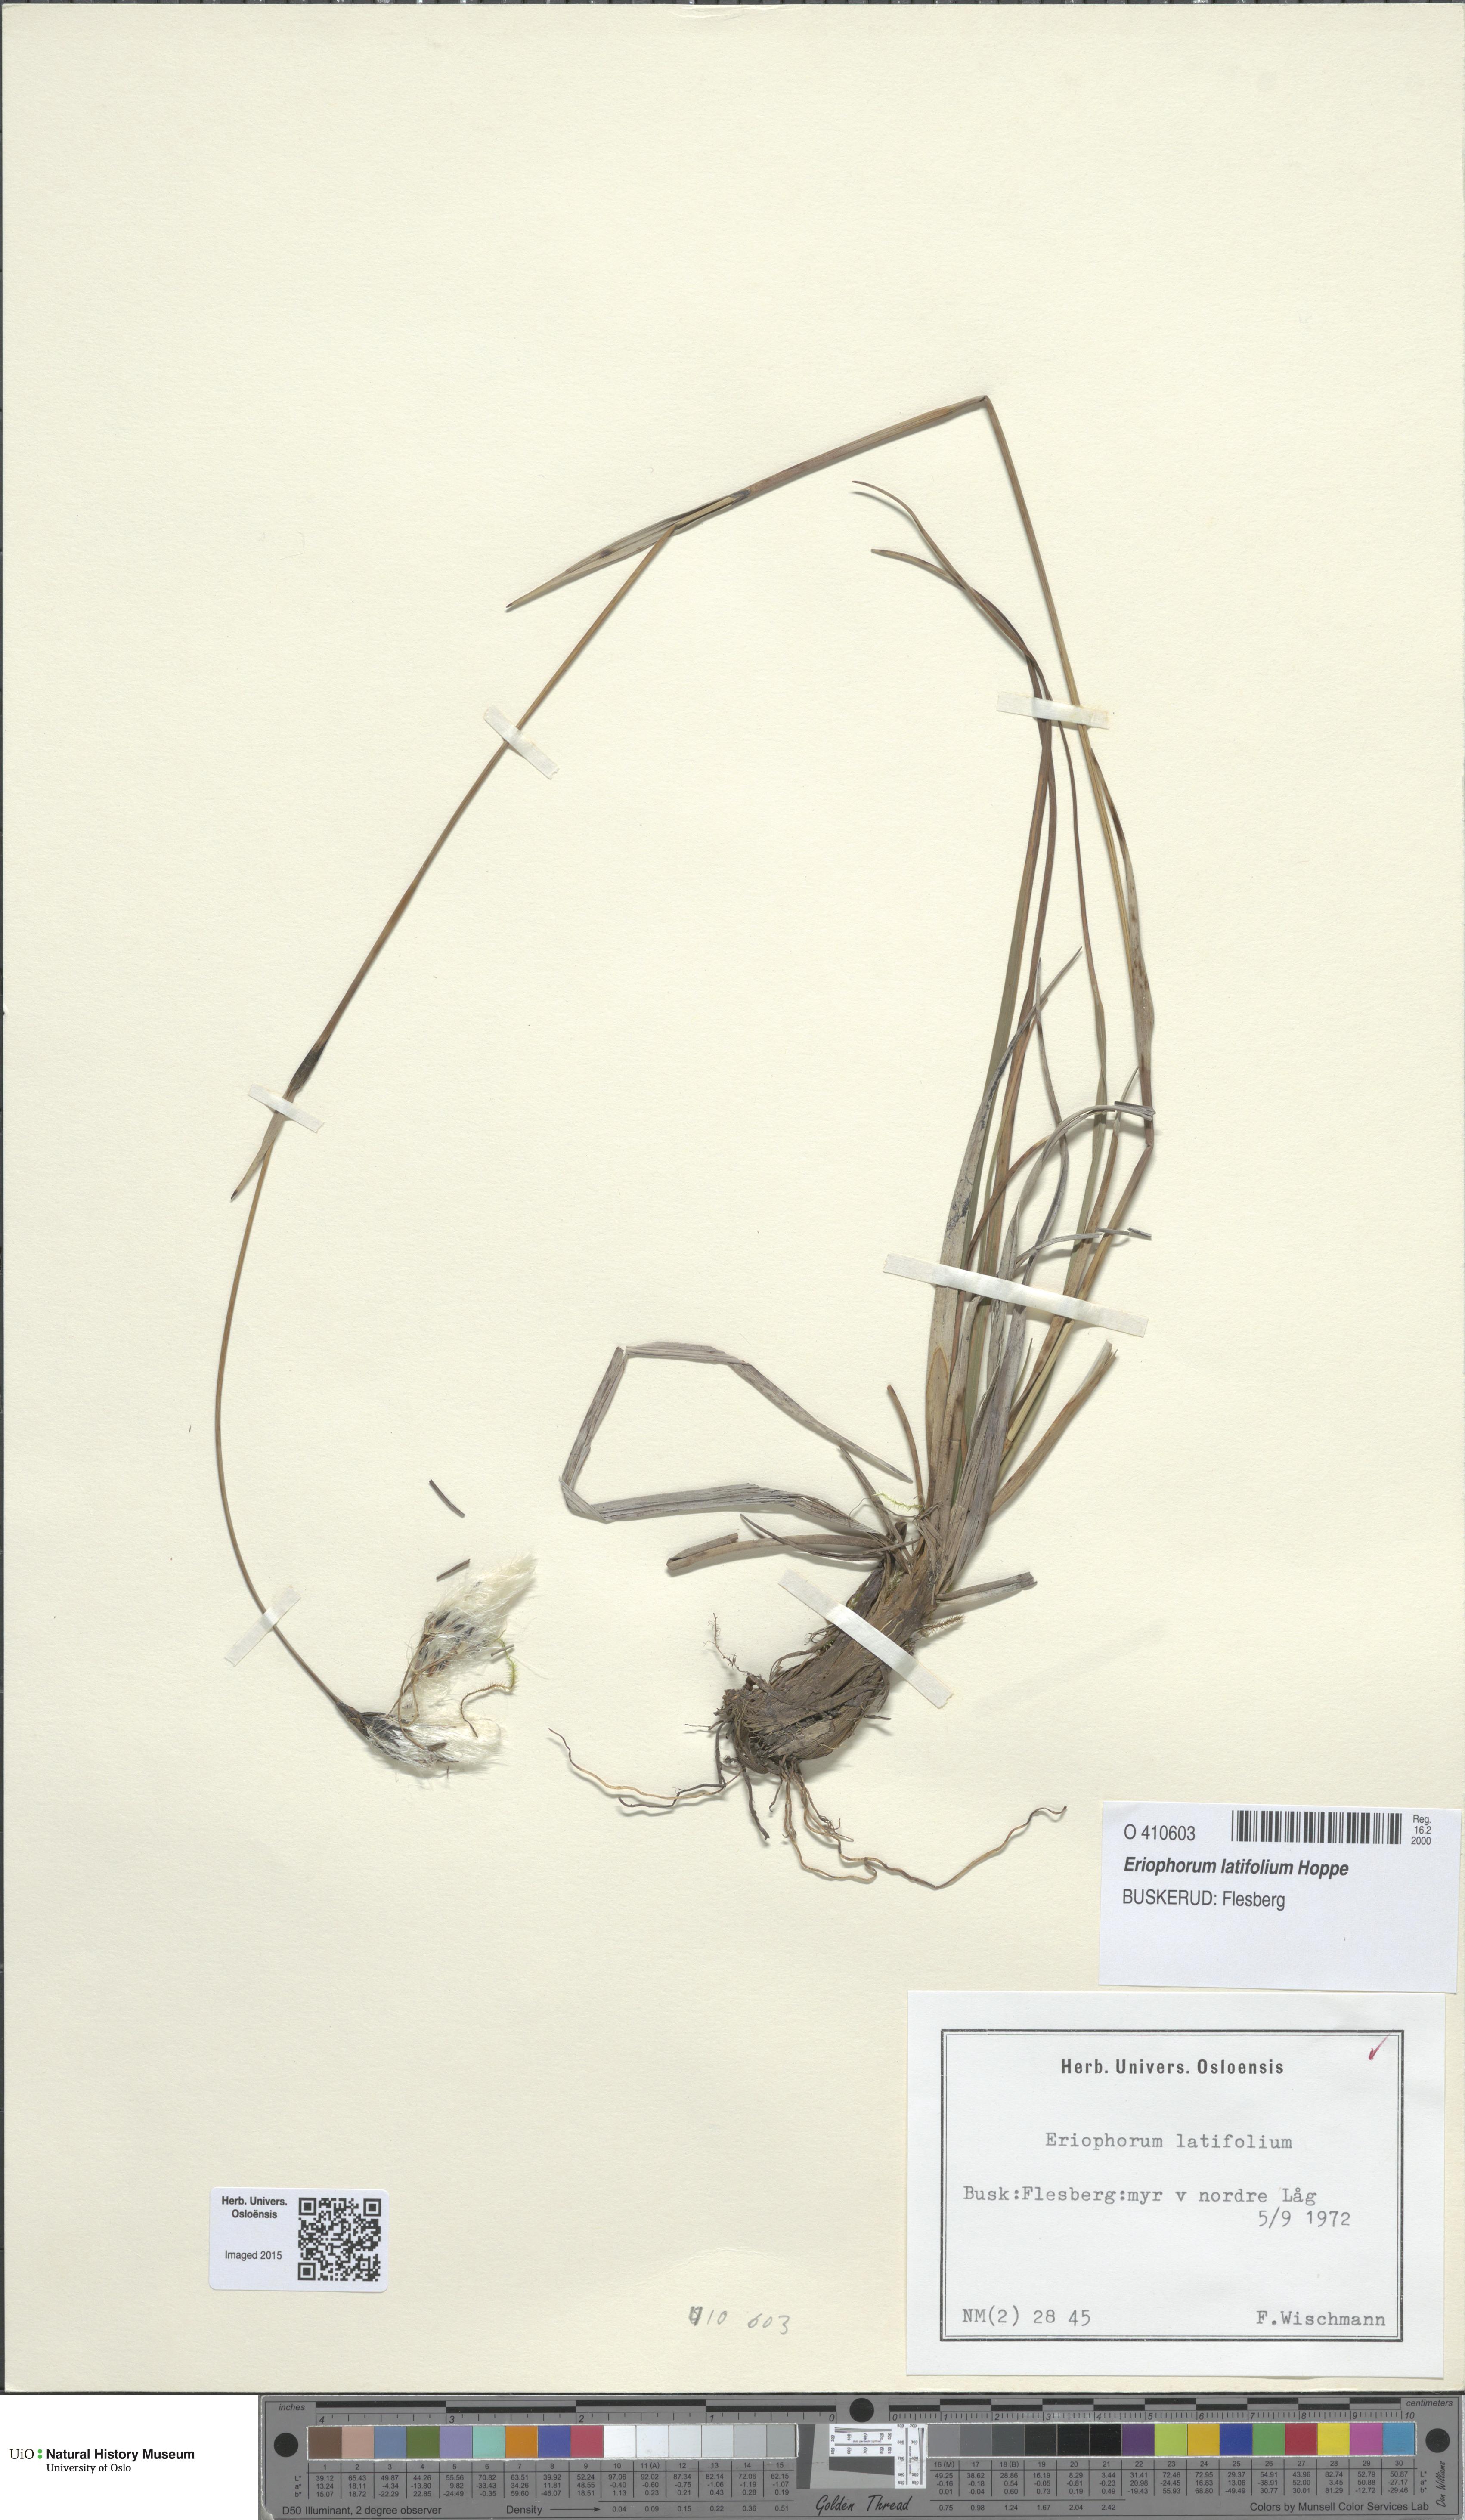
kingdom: Plantae
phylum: Tracheophyta
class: Liliopsida
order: Poales
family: Cyperaceae
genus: Eriophorum
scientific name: Eriophorum latifolium
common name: Broad-leaved cottongrass
